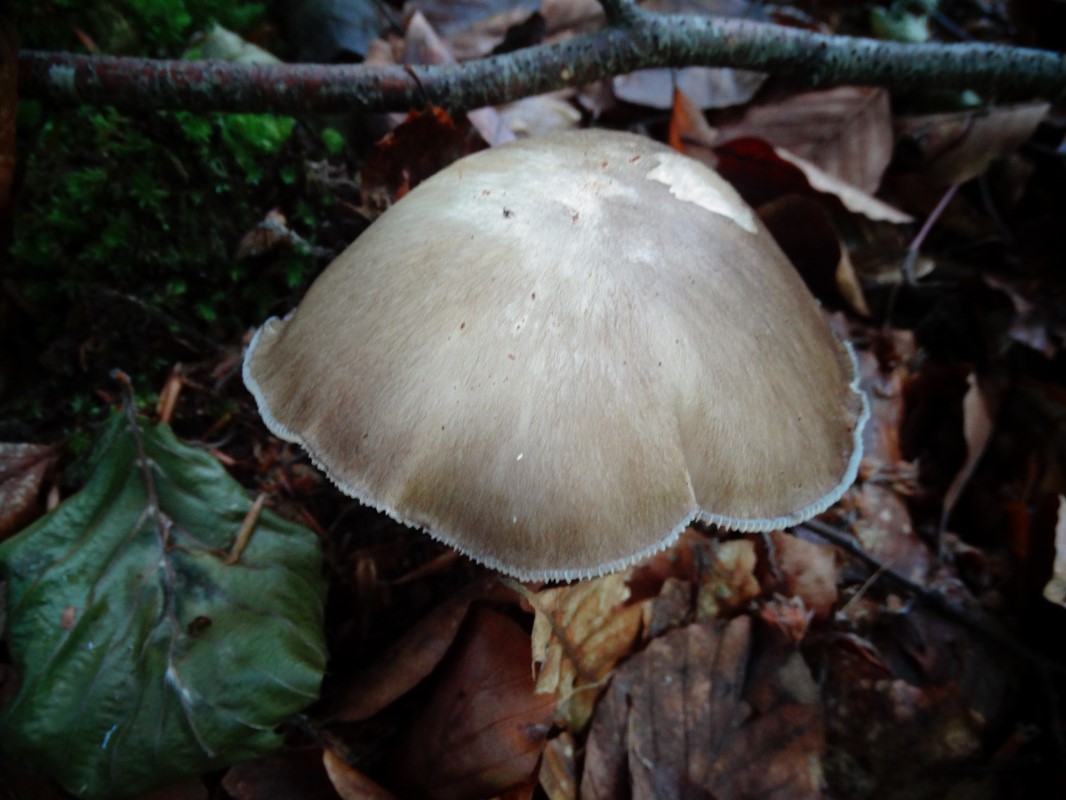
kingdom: Fungi
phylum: Basidiomycota
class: Agaricomycetes
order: Agaricales
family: Tricholomataceae
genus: Megacollybia
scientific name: Megacollybia platyphylla
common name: bredbladet væbnerhat
